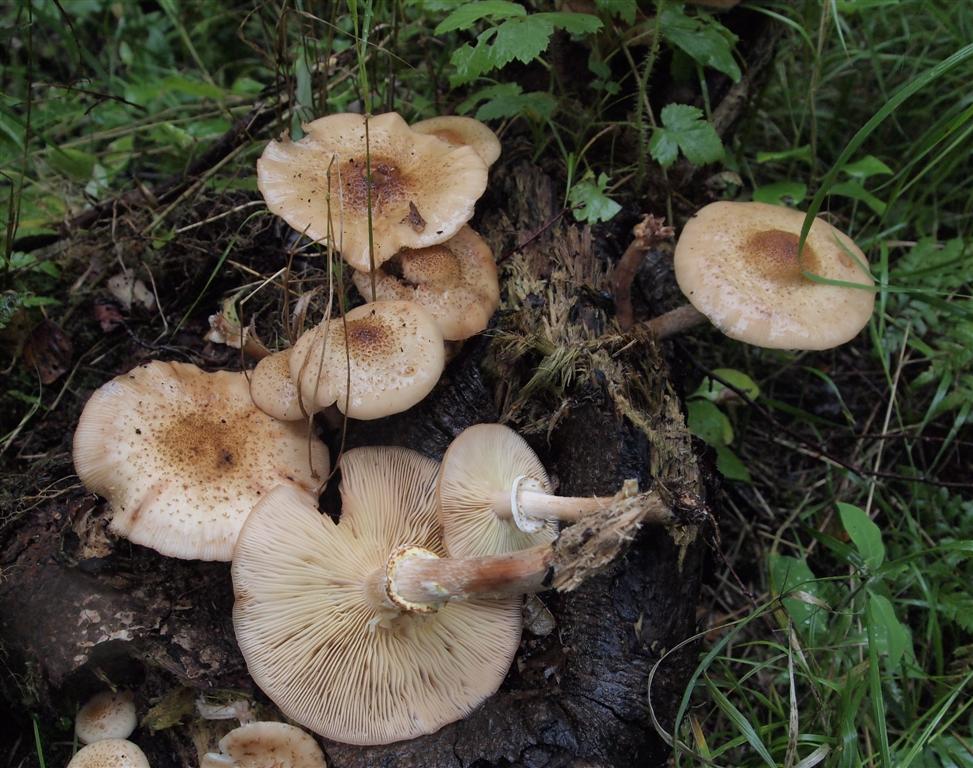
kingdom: Fungi
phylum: Basidiomycota
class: Agaricomycetes
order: Agaricales
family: Physalacriaceae
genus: Armillaria
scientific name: Armillaria borealis
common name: nordlig honningsvamp
